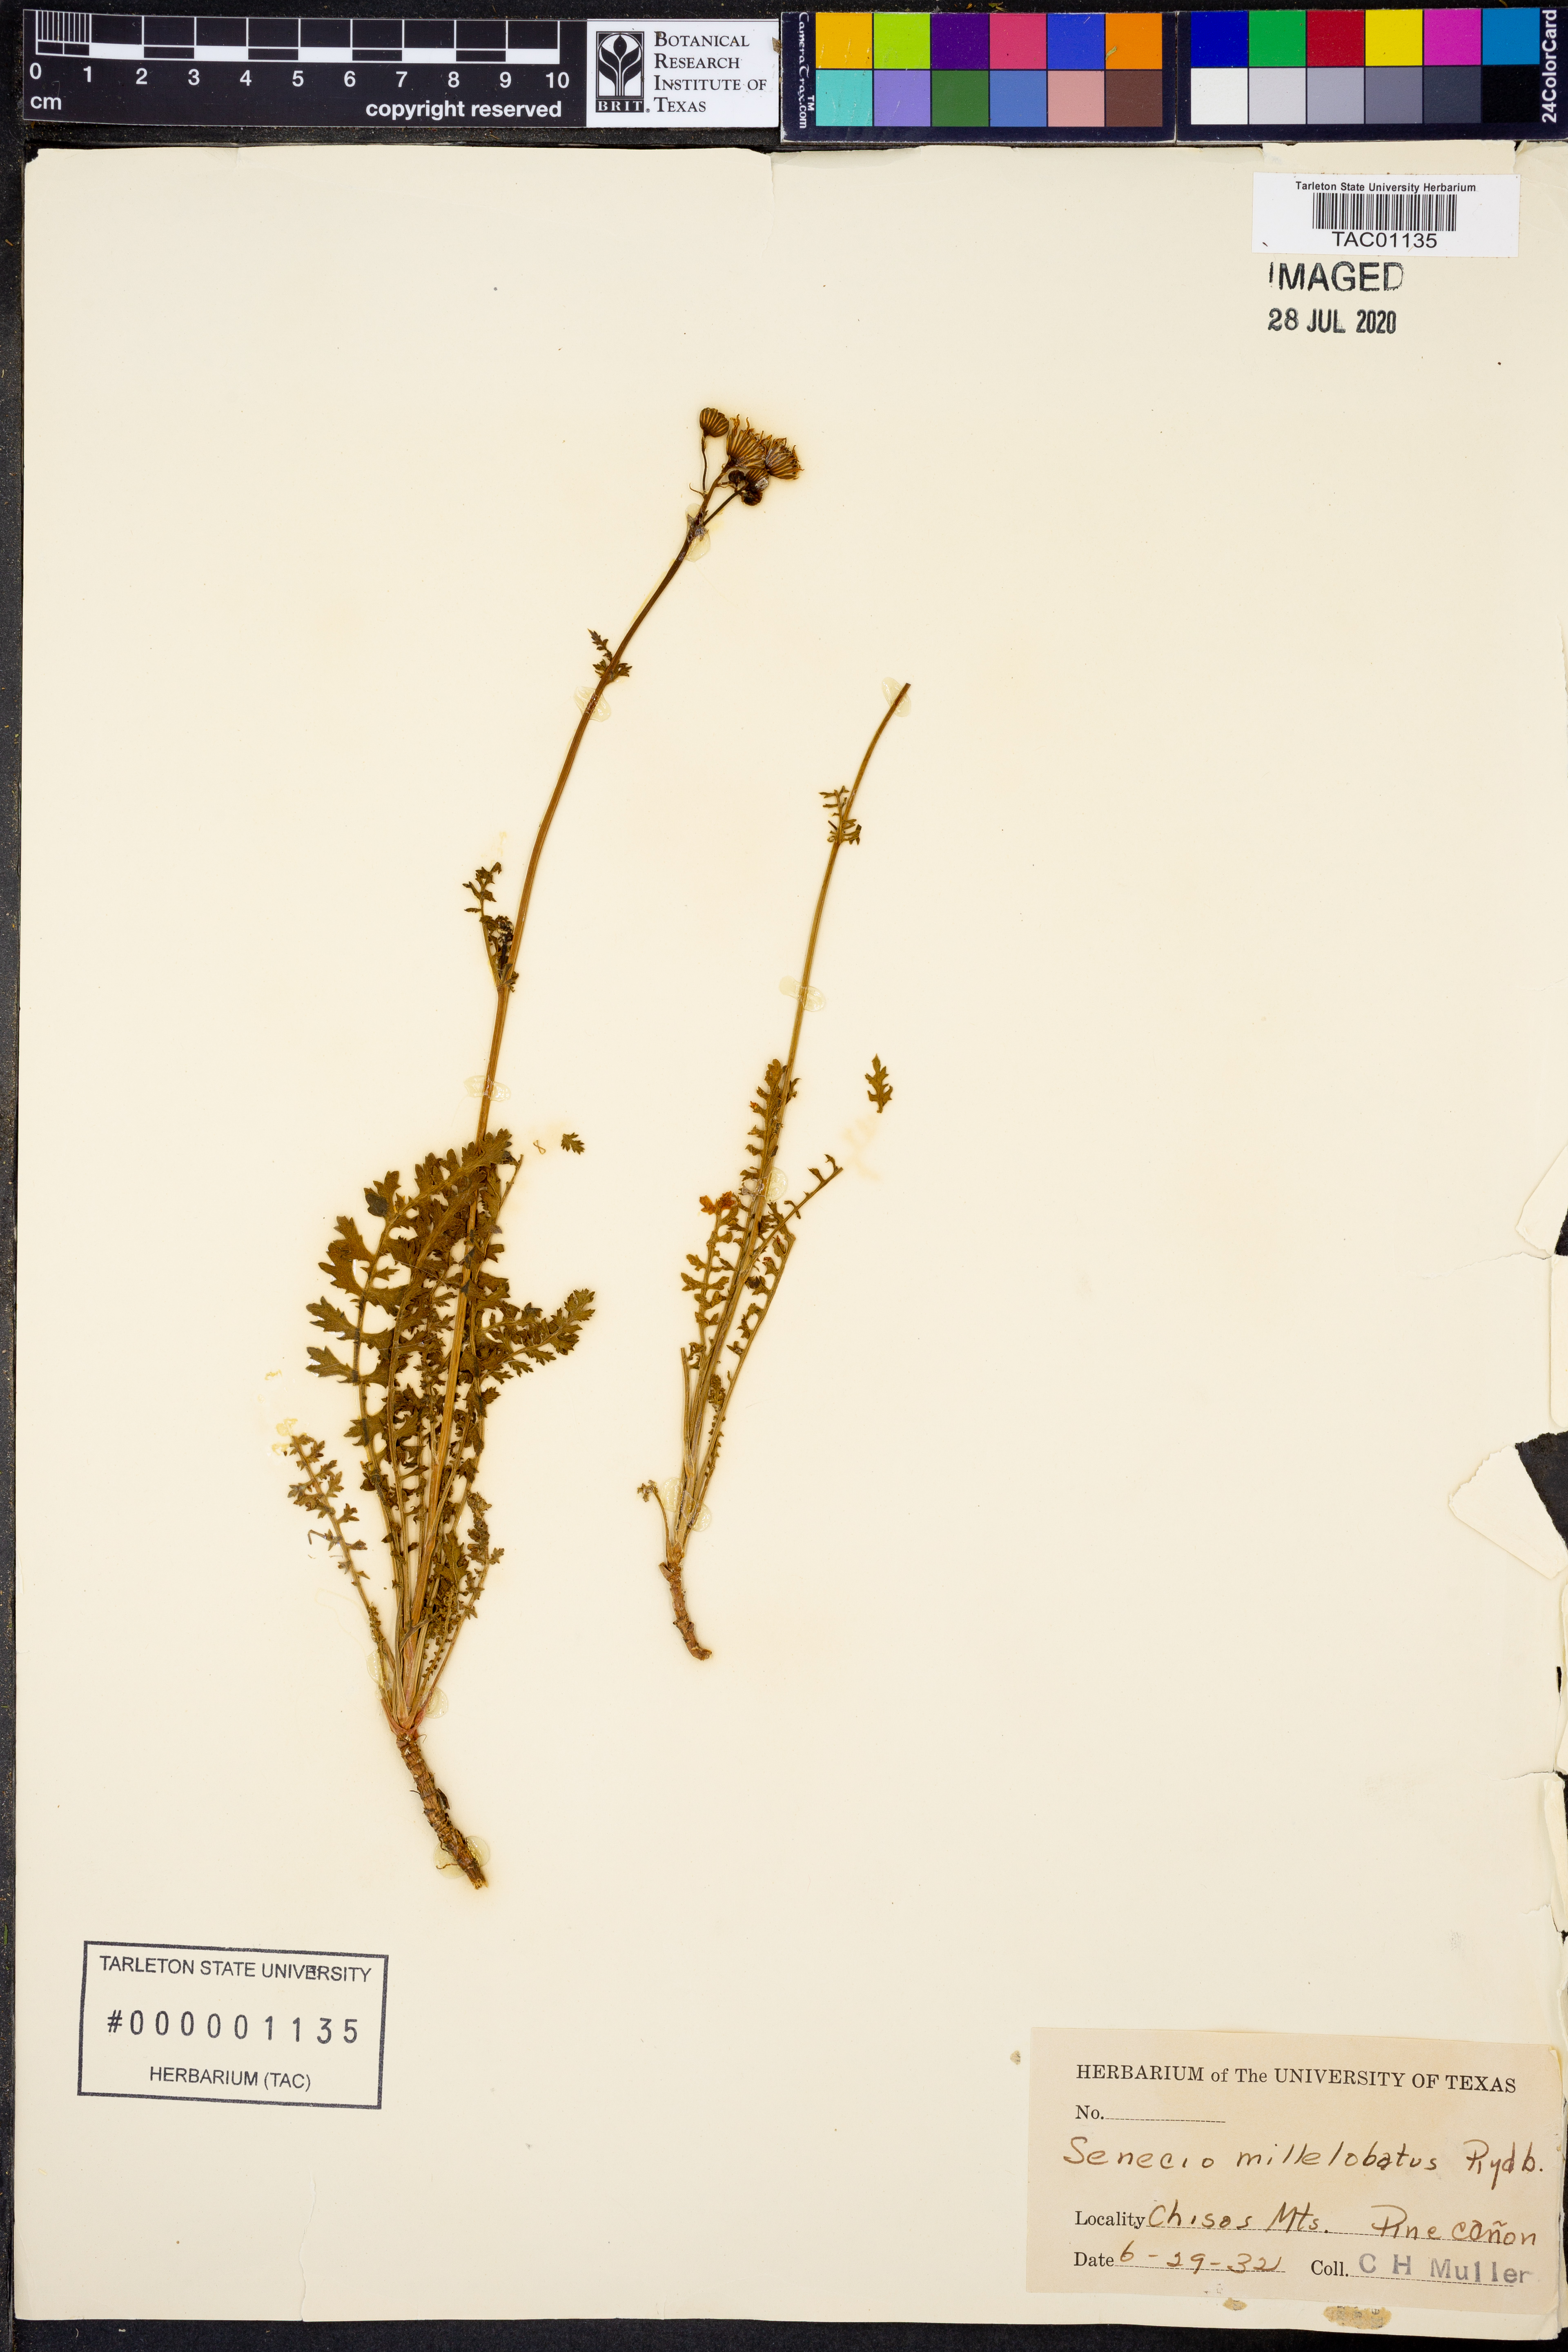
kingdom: Plantae
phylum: Tracheophyta
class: Magnoliopsida
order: Asterales
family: Asteraceae
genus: Packera
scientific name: Packera millelobata
